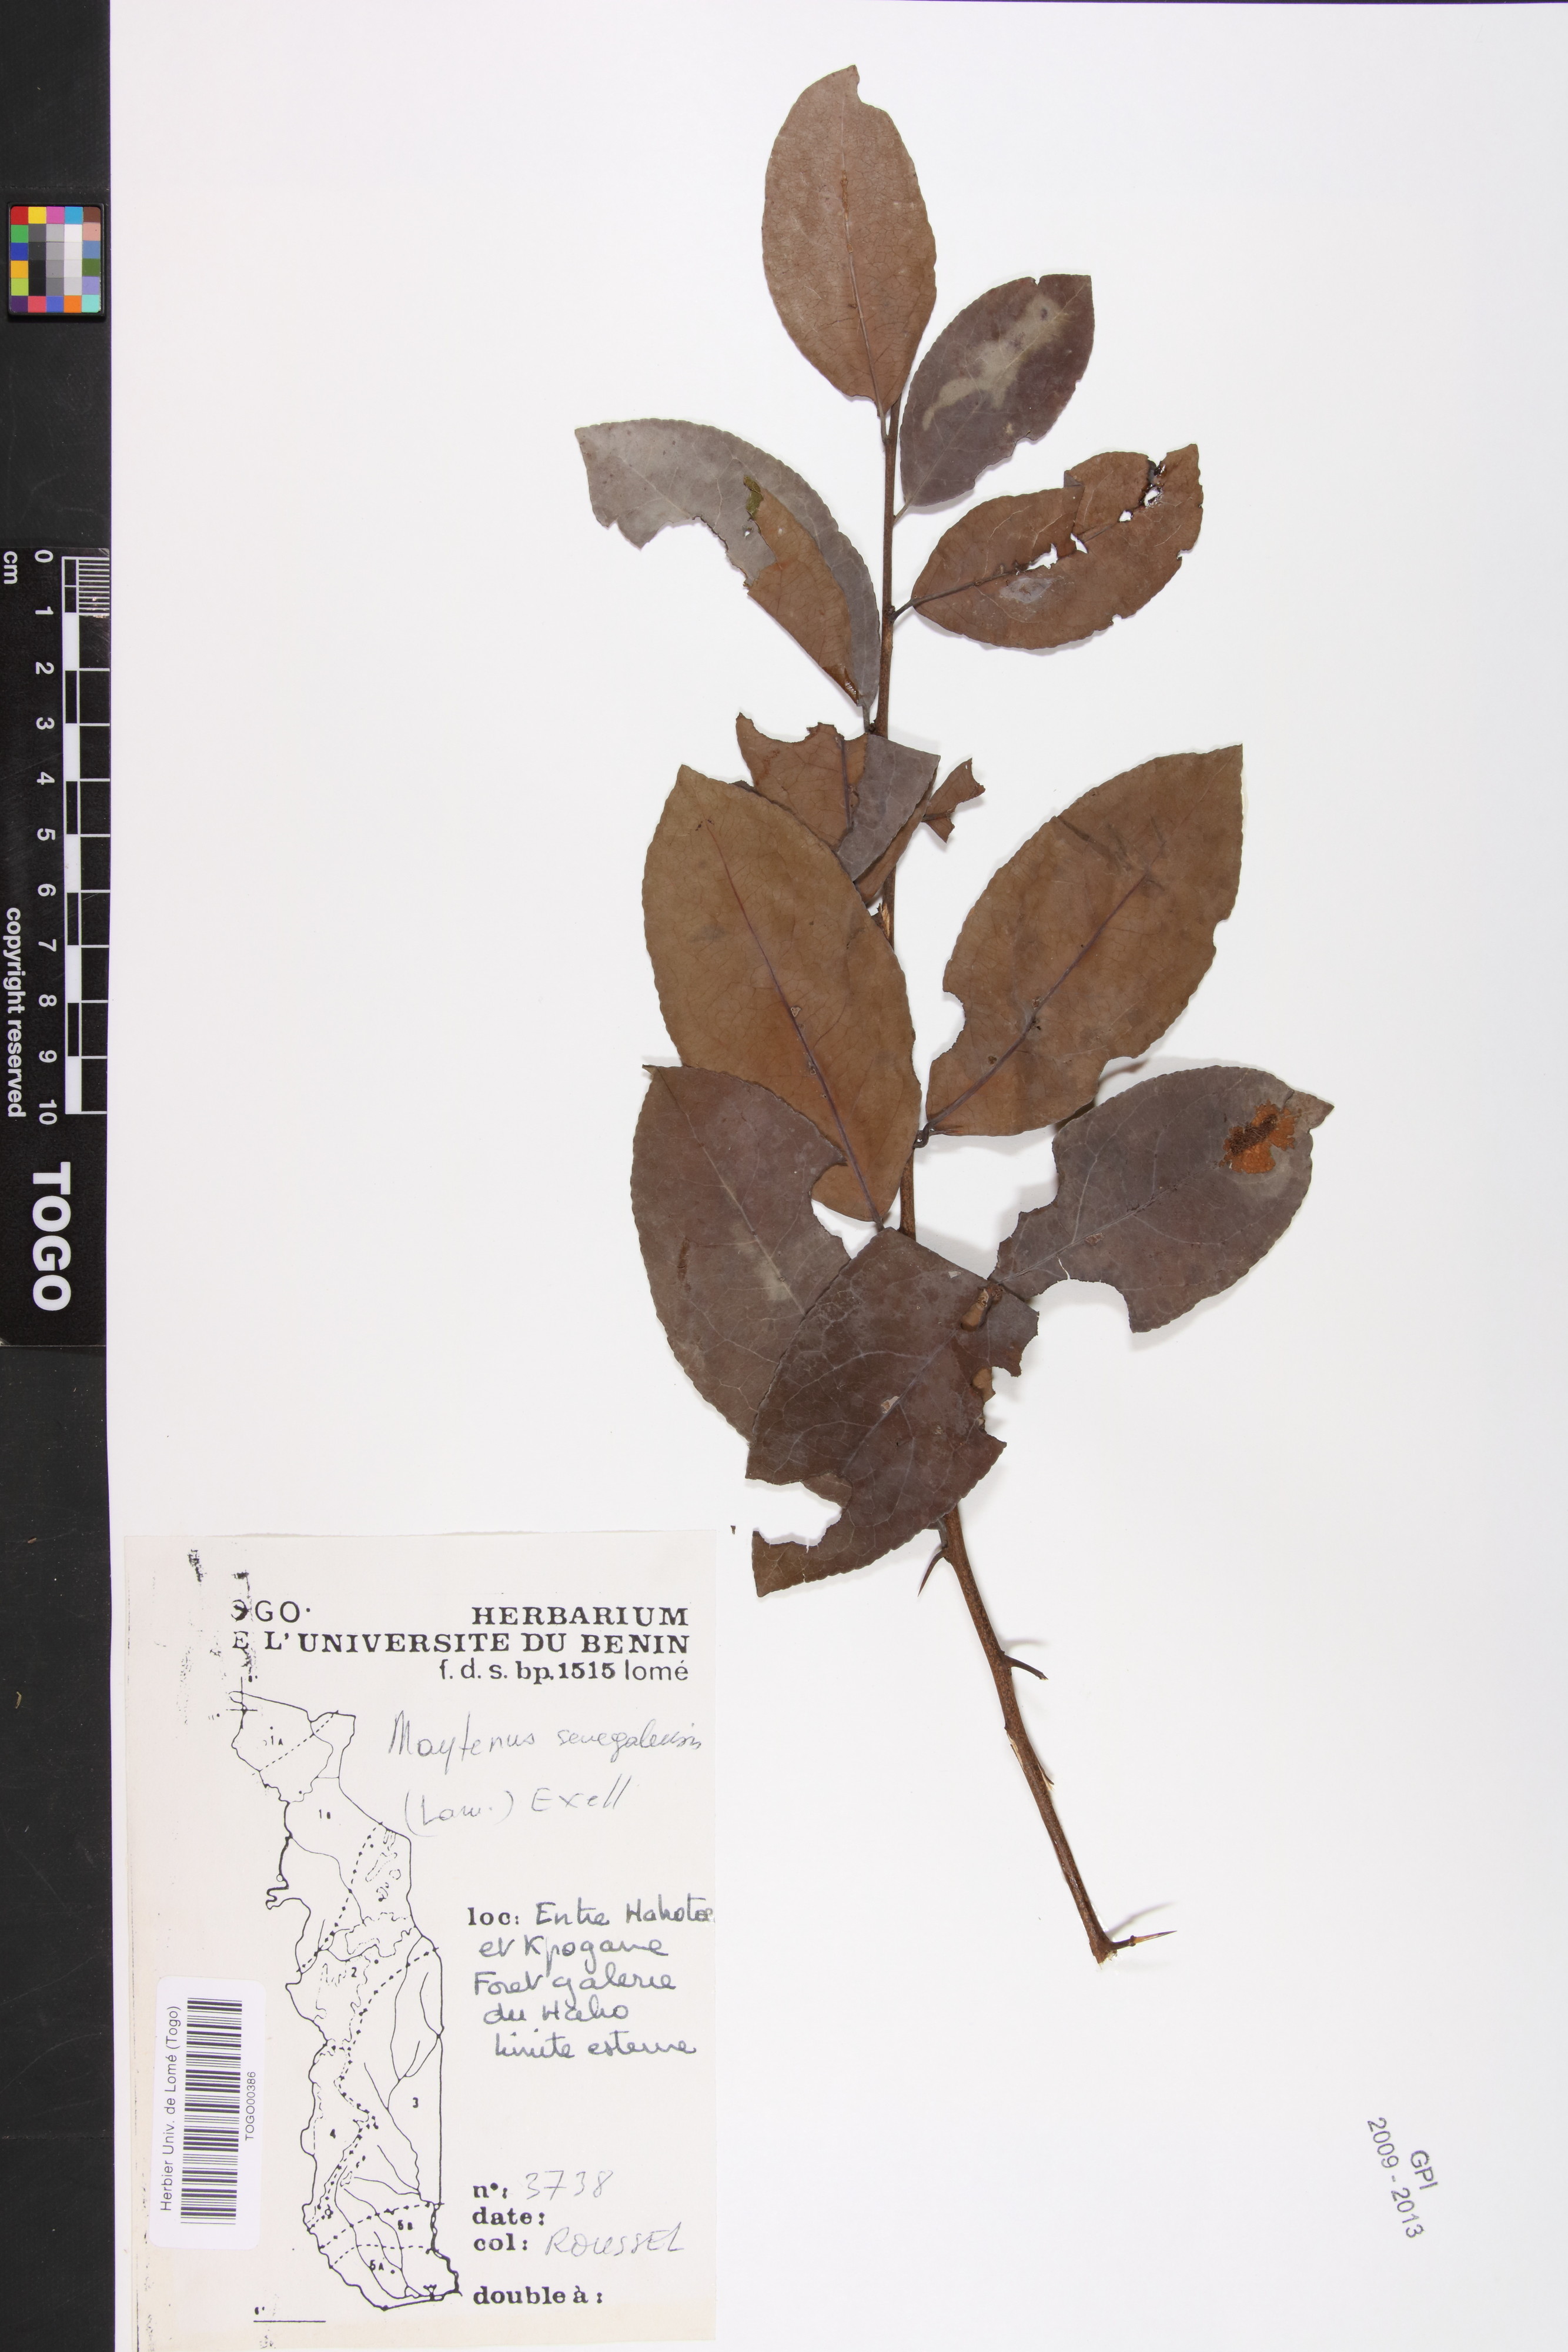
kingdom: Plantae
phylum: Tracheophyta
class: Magnoliopsida
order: Celastrales
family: Celastraceae
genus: Gymnosporia
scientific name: Gymnosporia senegalensis
